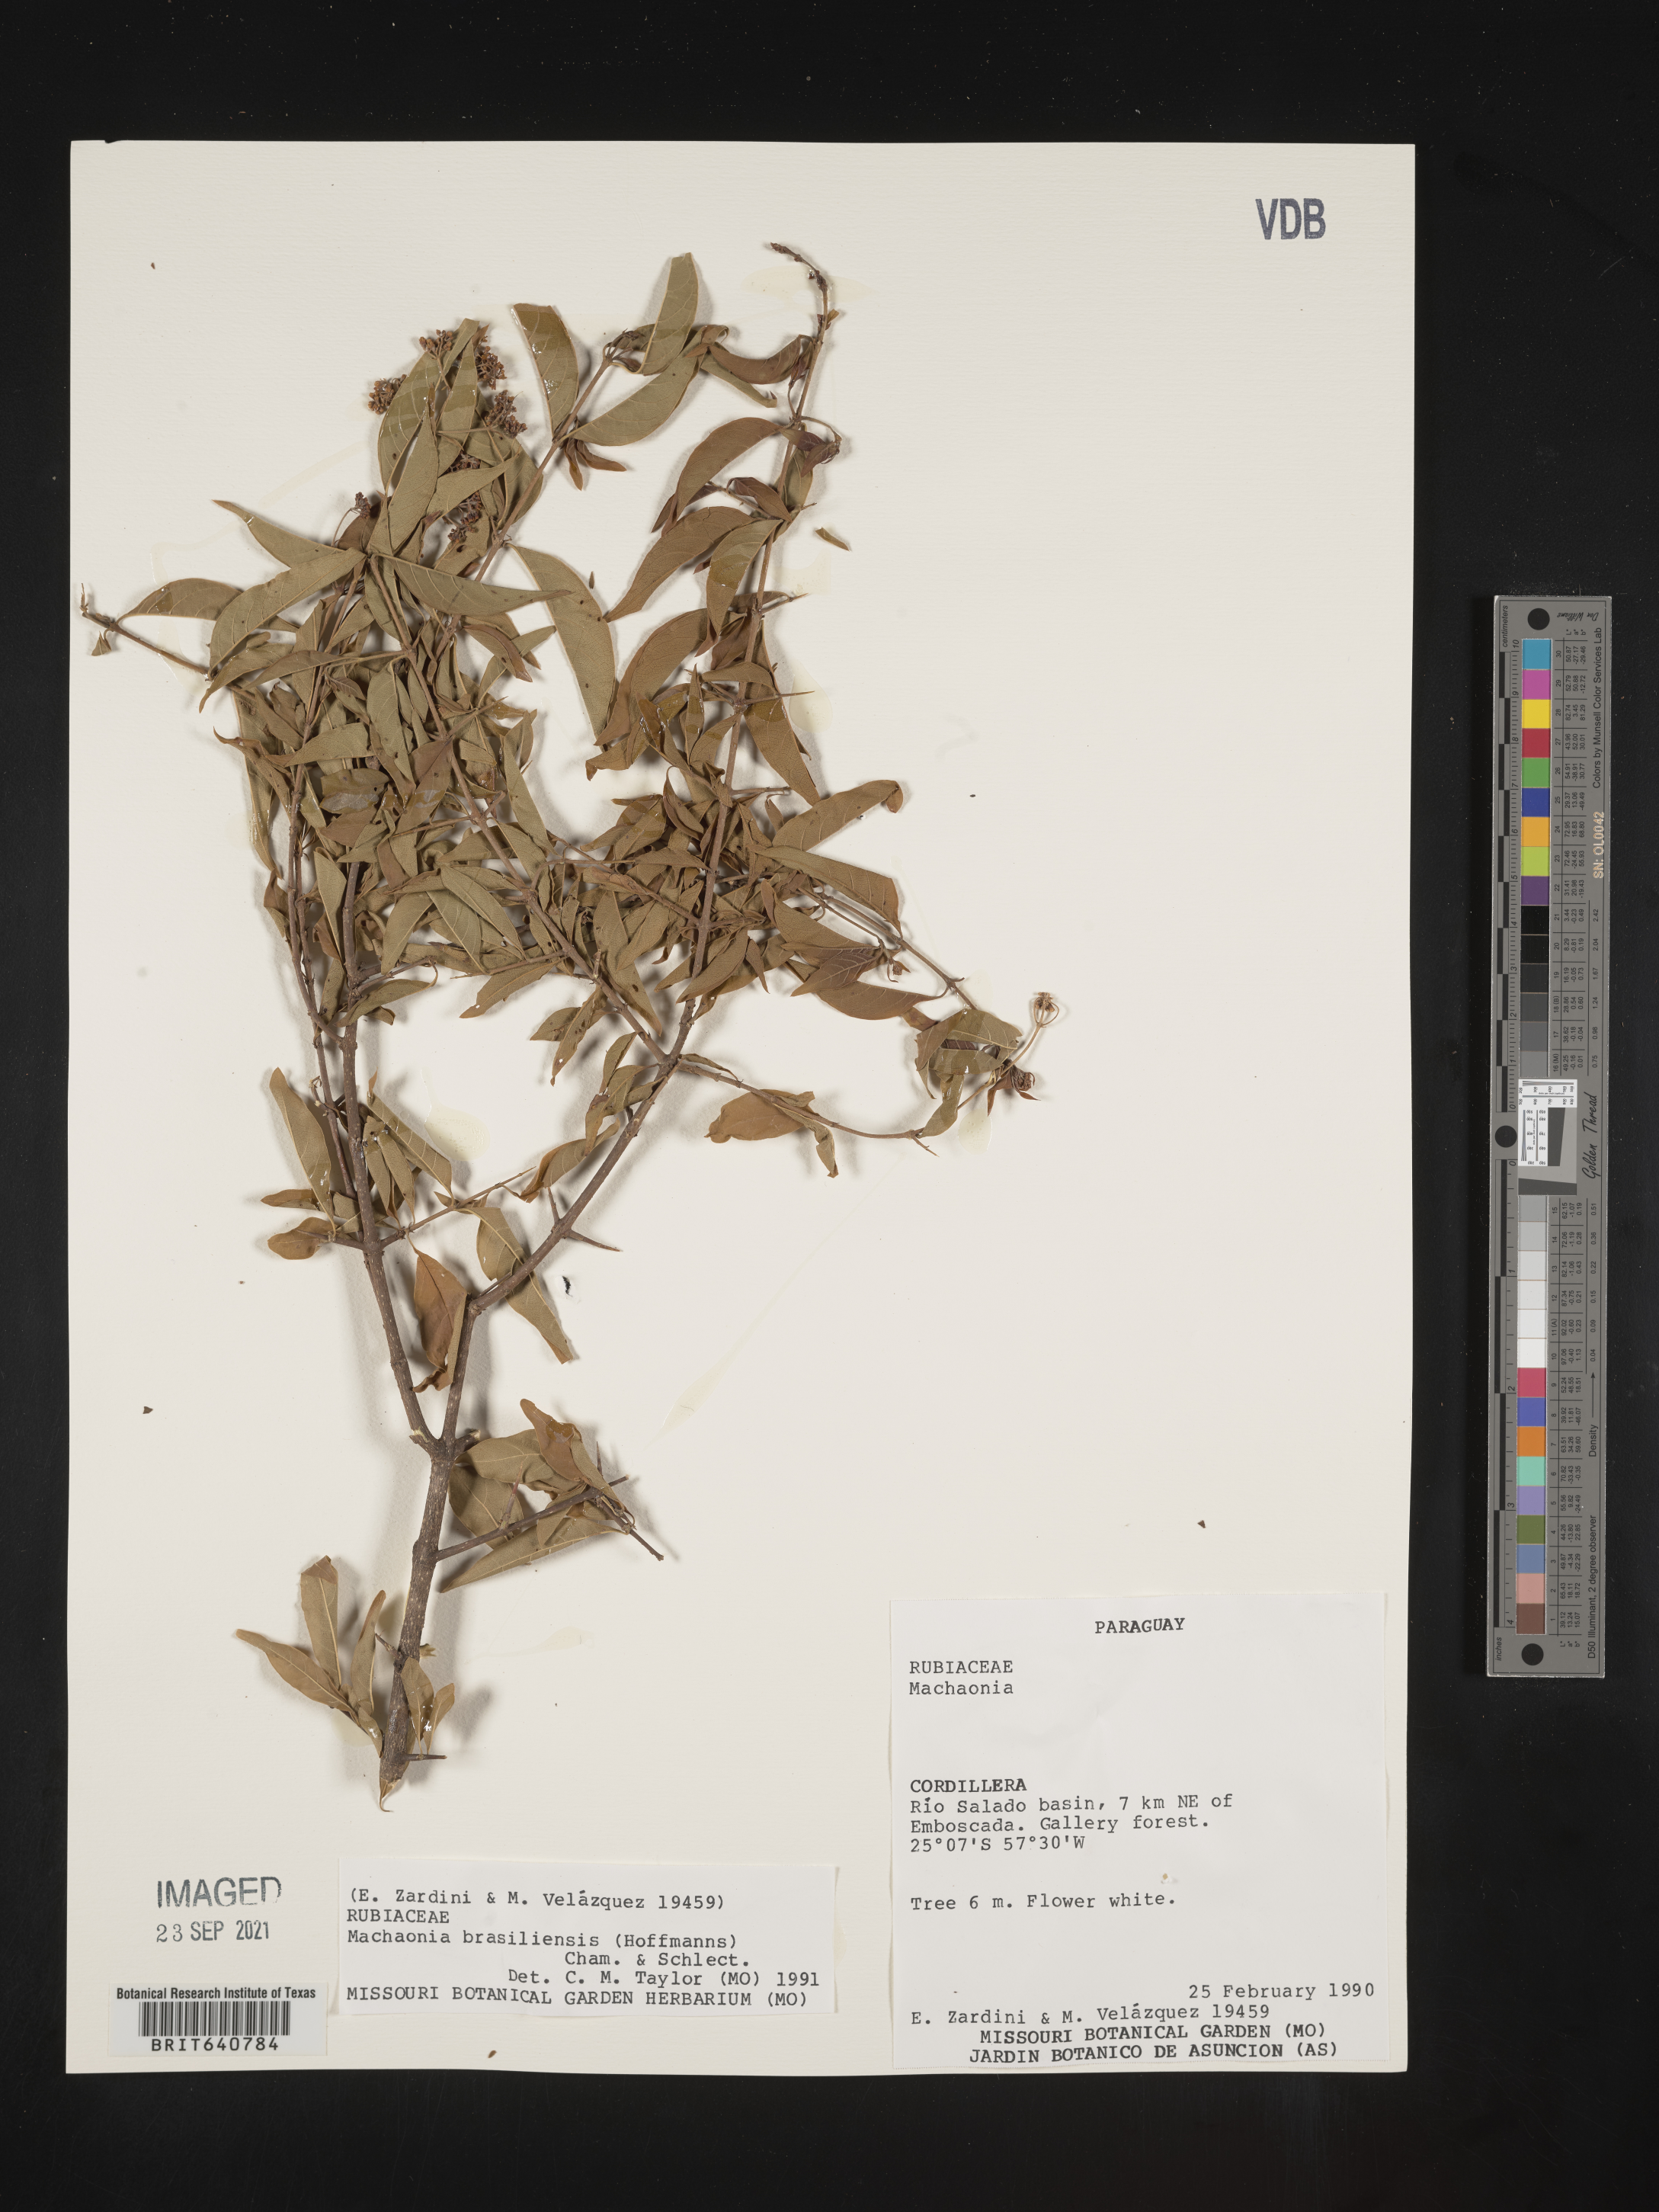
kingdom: Plantae
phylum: Tracheophyta
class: Magnoliopsida
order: Gentianales
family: Rubiaceae
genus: Machaonia
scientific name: Machaonia
